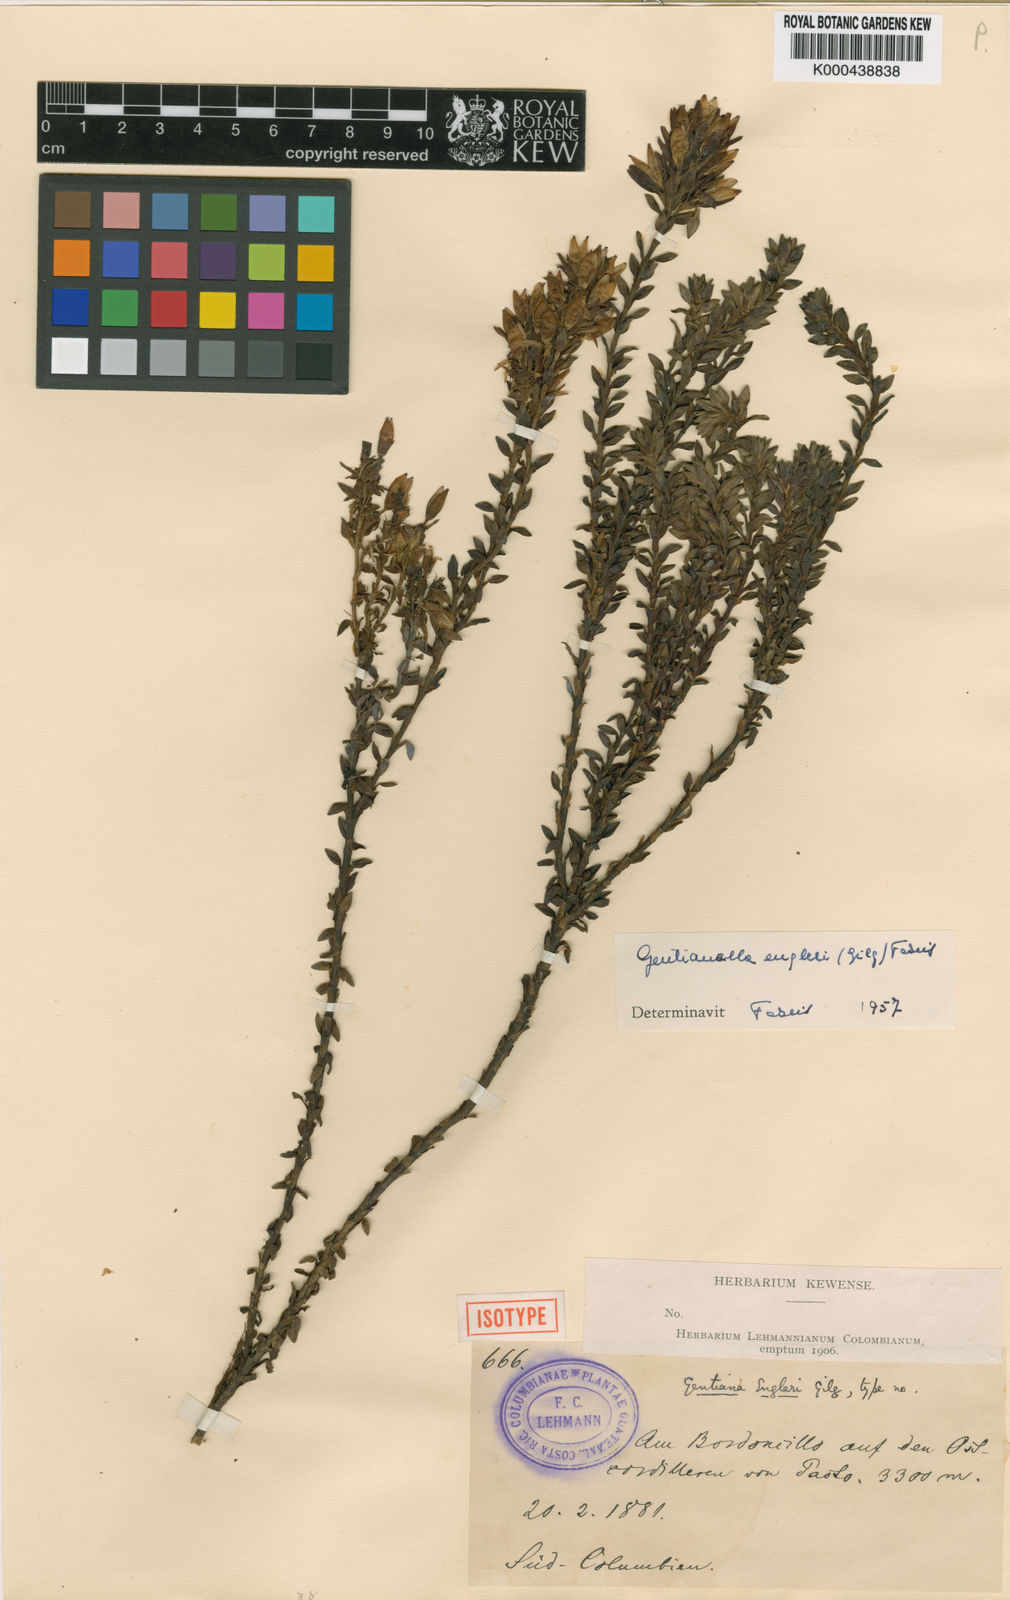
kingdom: Plantae
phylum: Tracheophyta
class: Magnoliopsida
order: Gentianales
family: Gentianaceae
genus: Gentianella
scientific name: Gentianella crassulifolia
